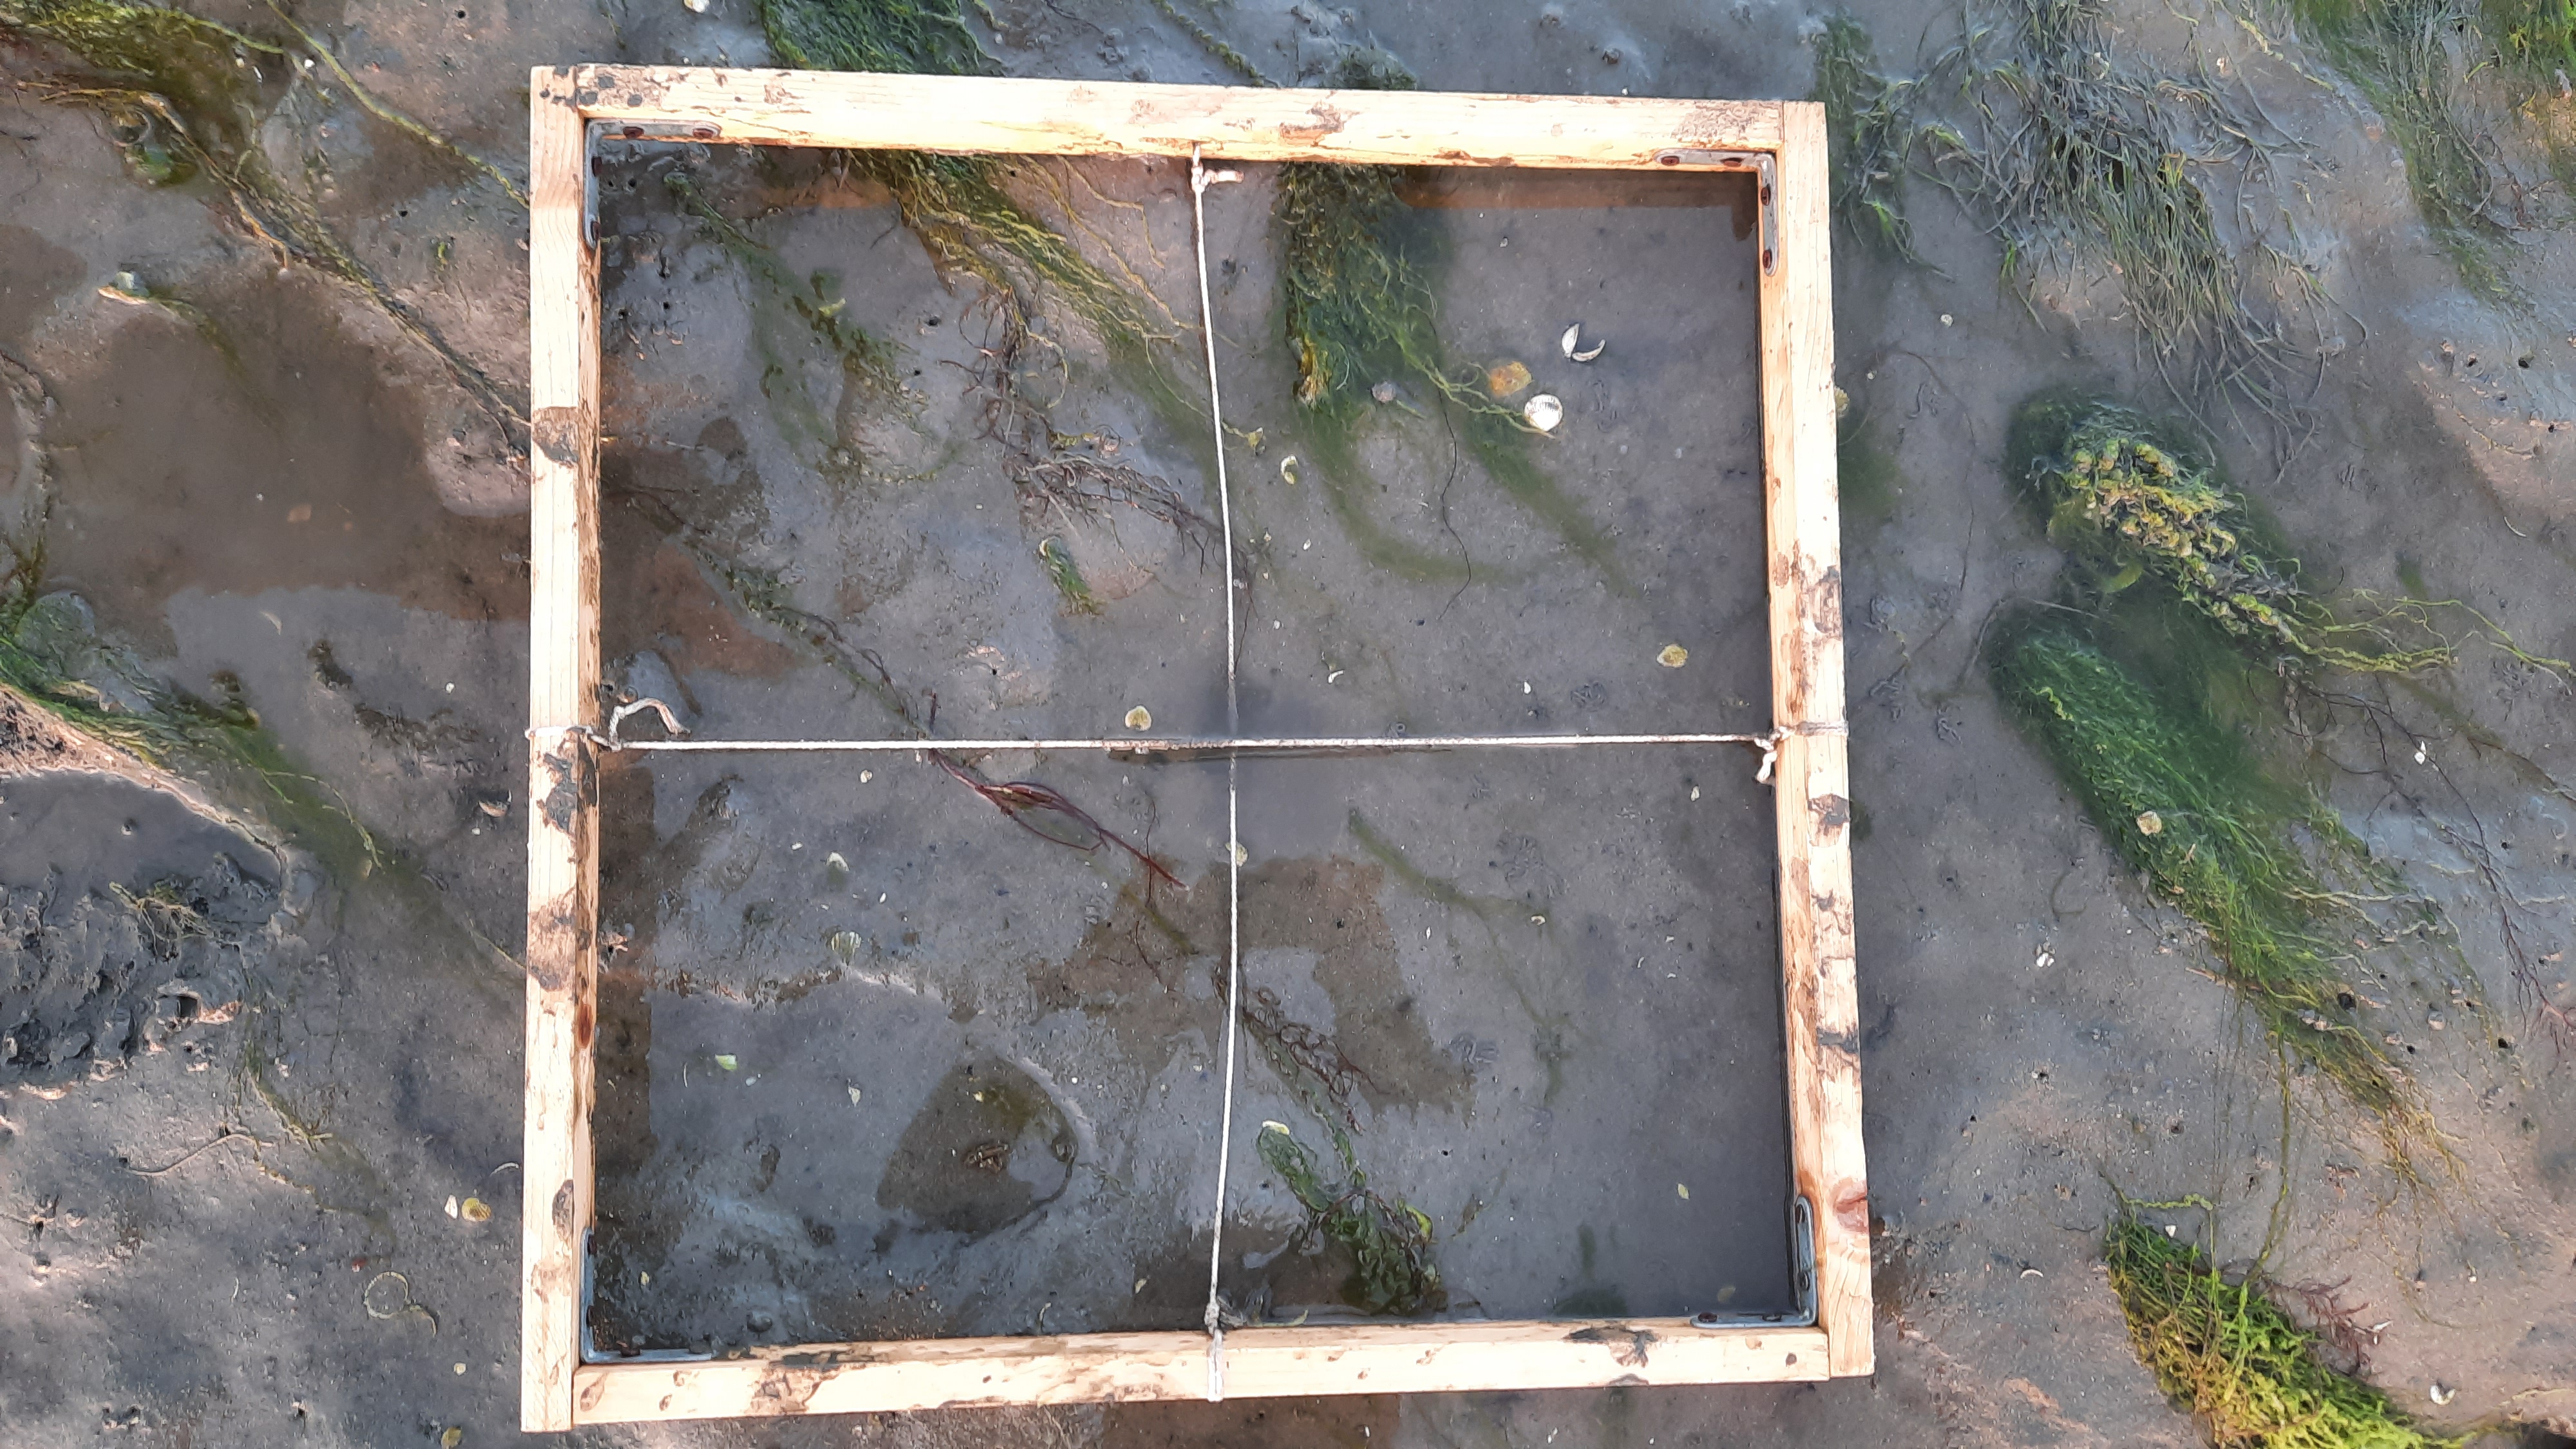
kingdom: Plantae
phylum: Chlorophyta
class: Ulvophyceae
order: Ulvales
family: Ulvaceae
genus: Ulva
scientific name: Ulva
